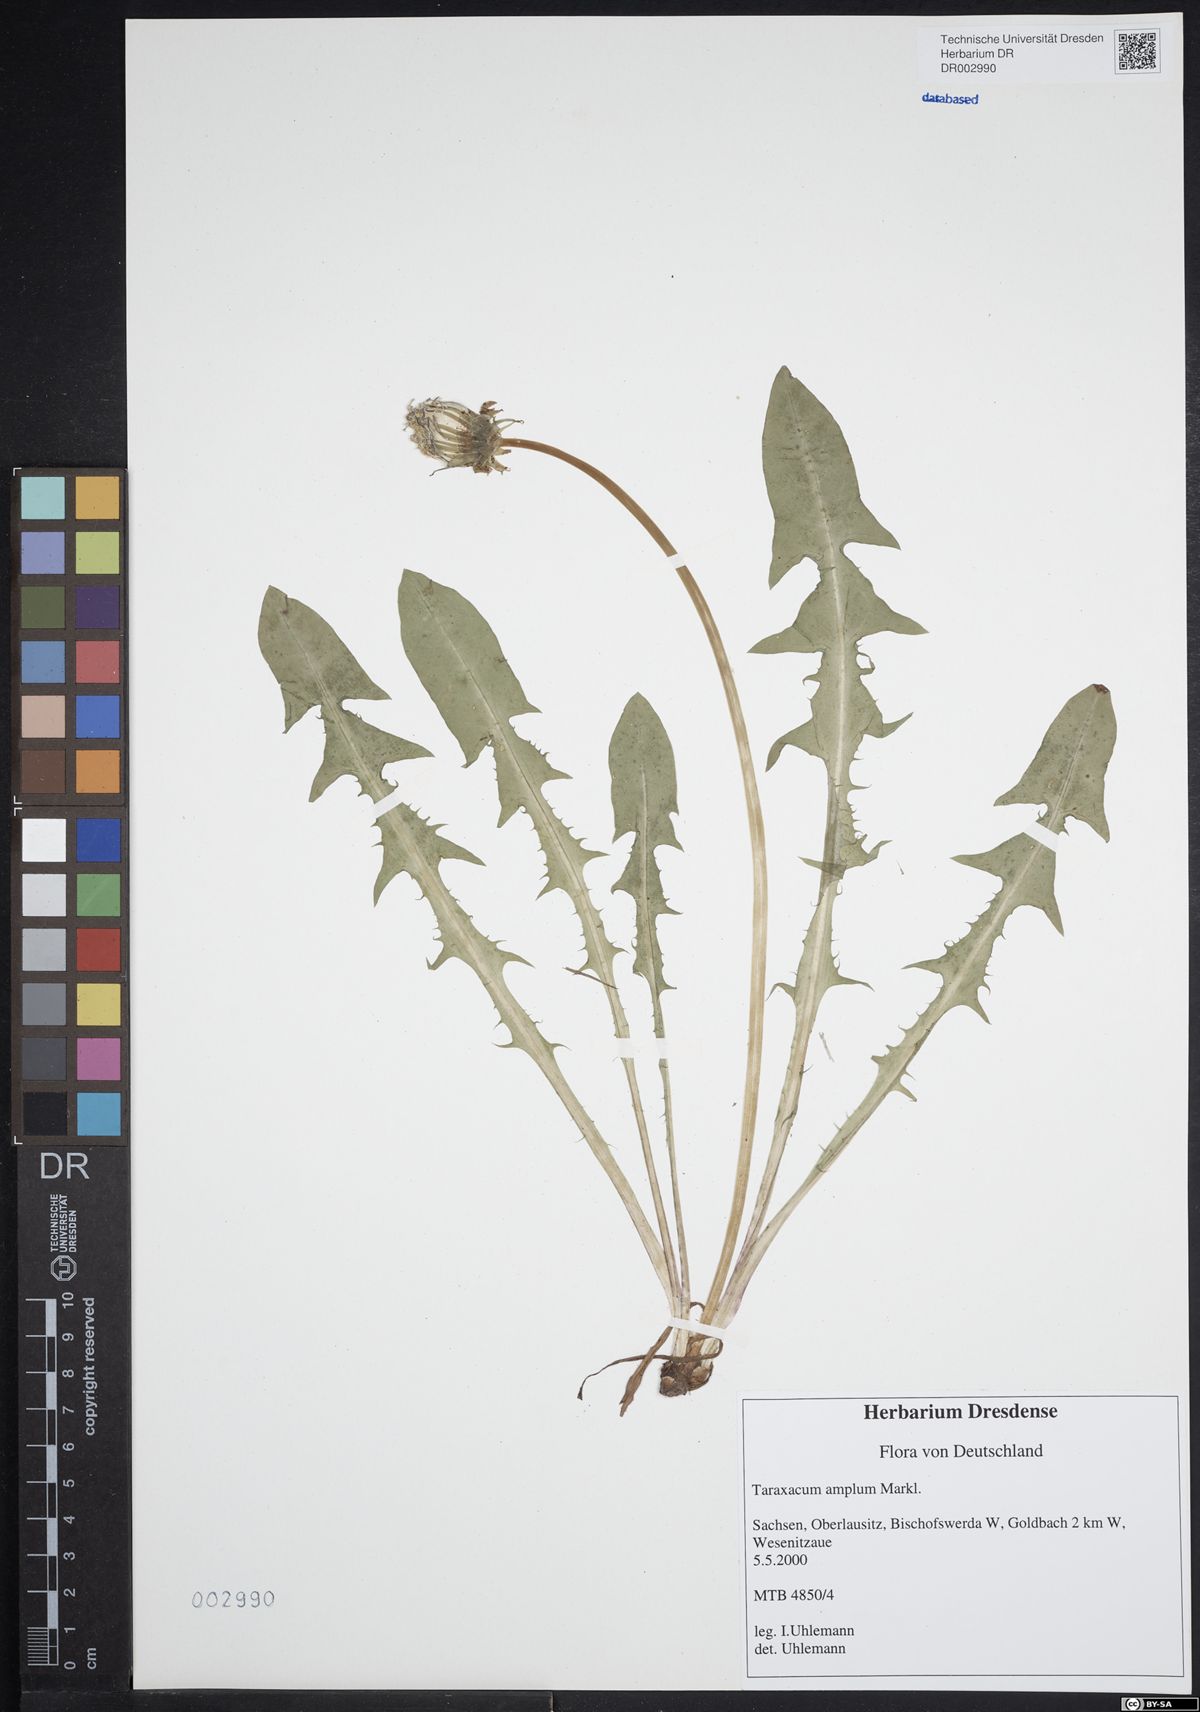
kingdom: Plantae
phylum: Tracheophyta
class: Magnoliopsida
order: Asterales
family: Asteraceae
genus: Taraxacum
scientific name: Taraxacum amplum
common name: Toothed dandelion
